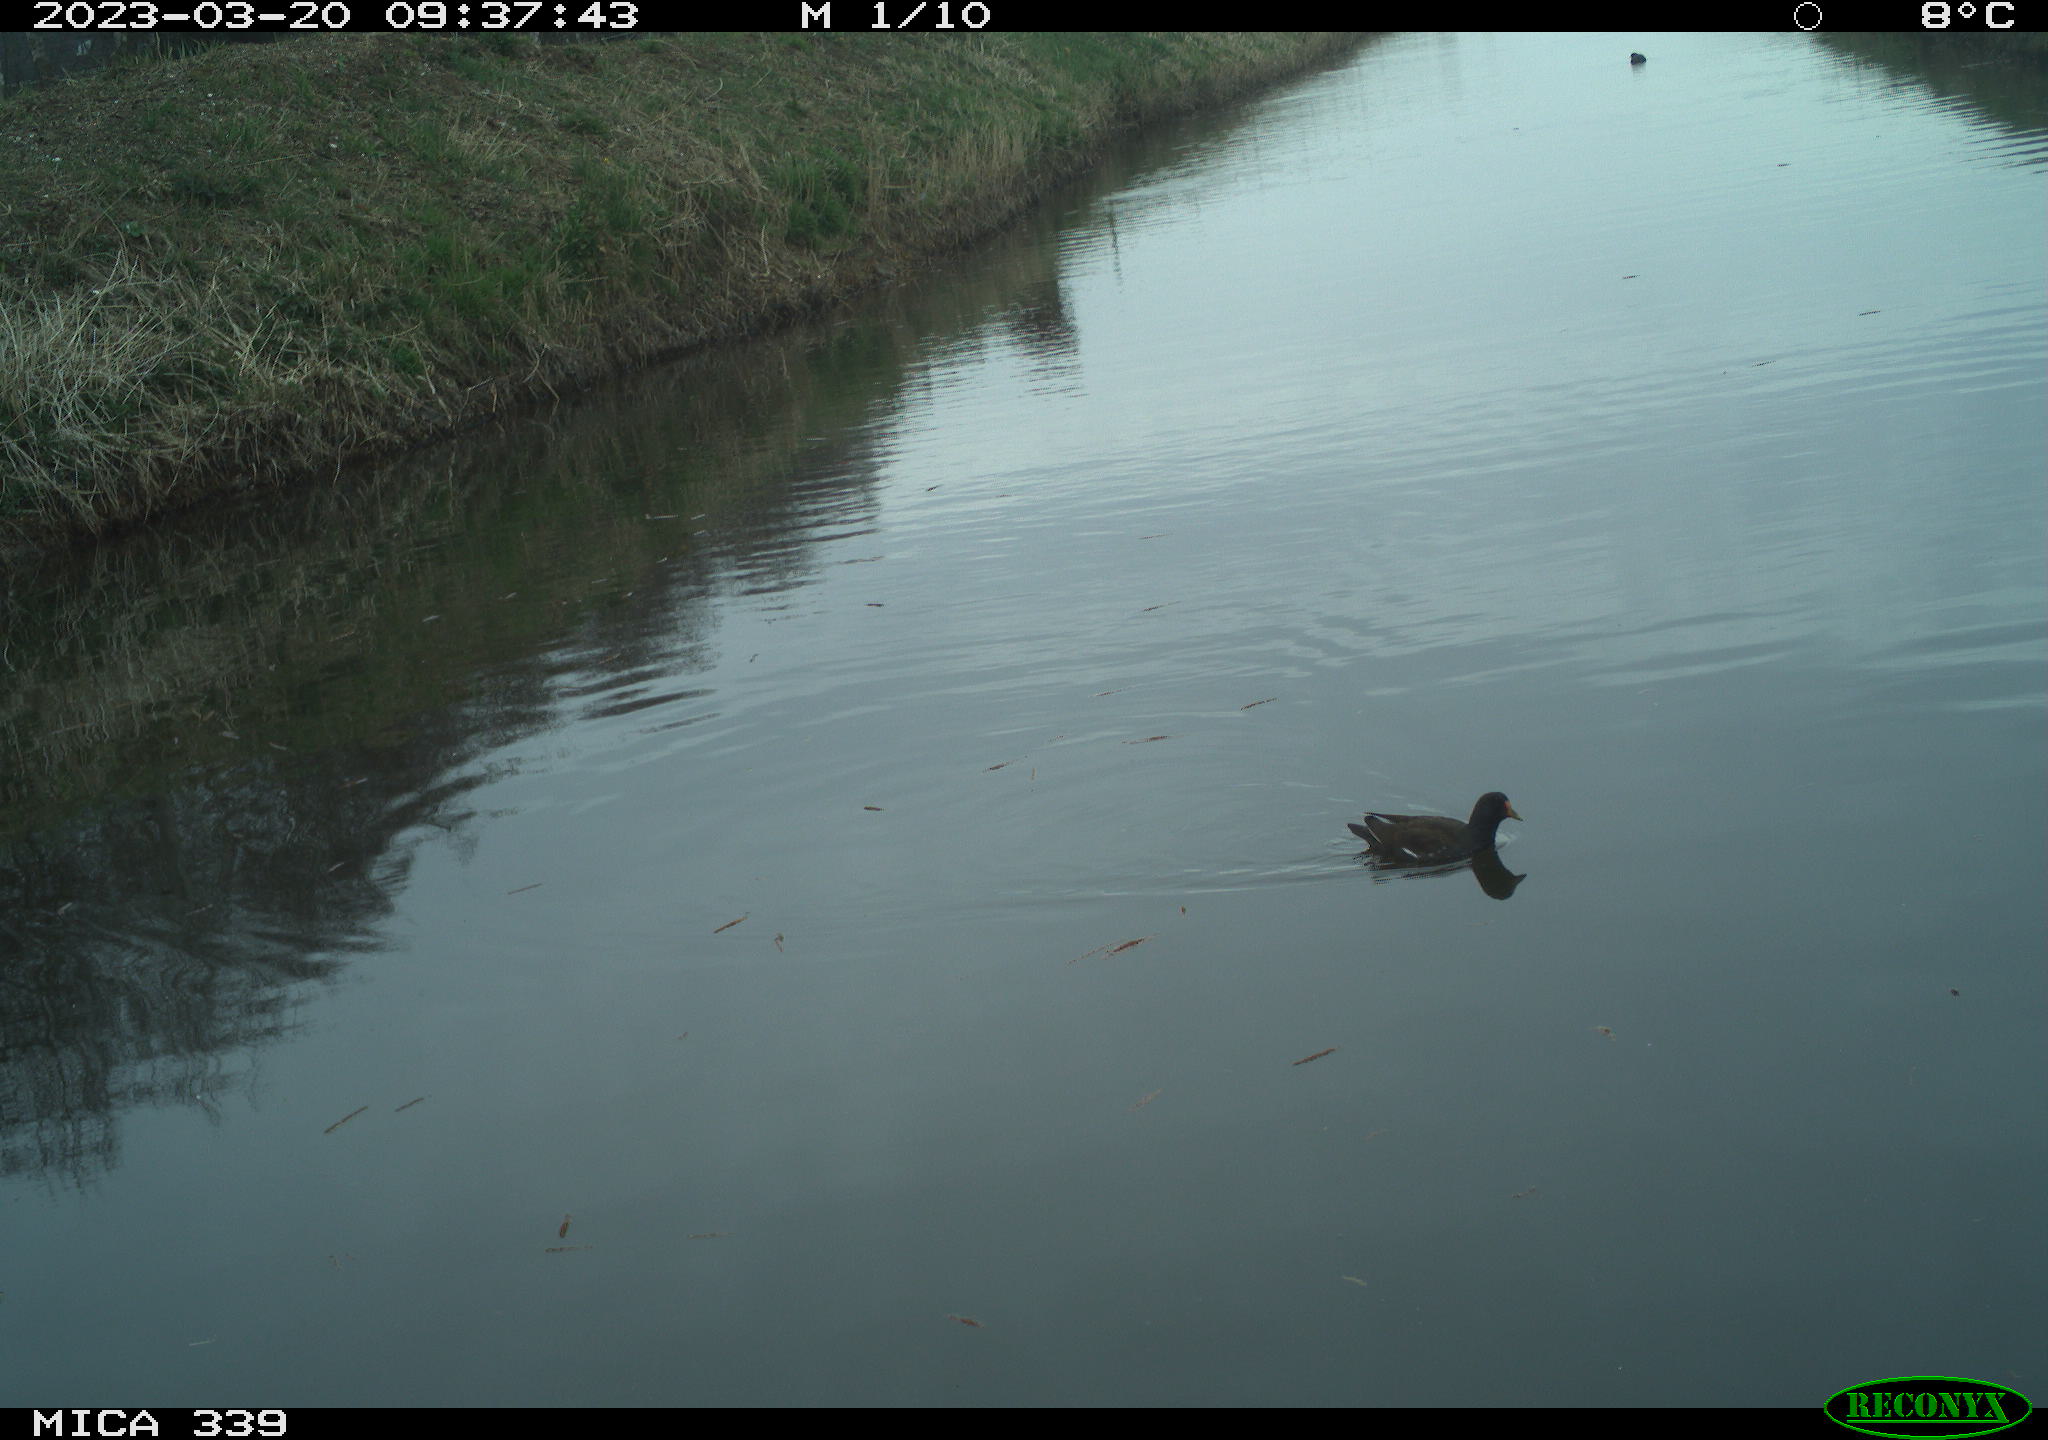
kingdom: Animalia
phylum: Chordata
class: Aves
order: Gruiformes
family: Rallidae
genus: Gallinula
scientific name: Gallinula chloropus
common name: Common moorhen
